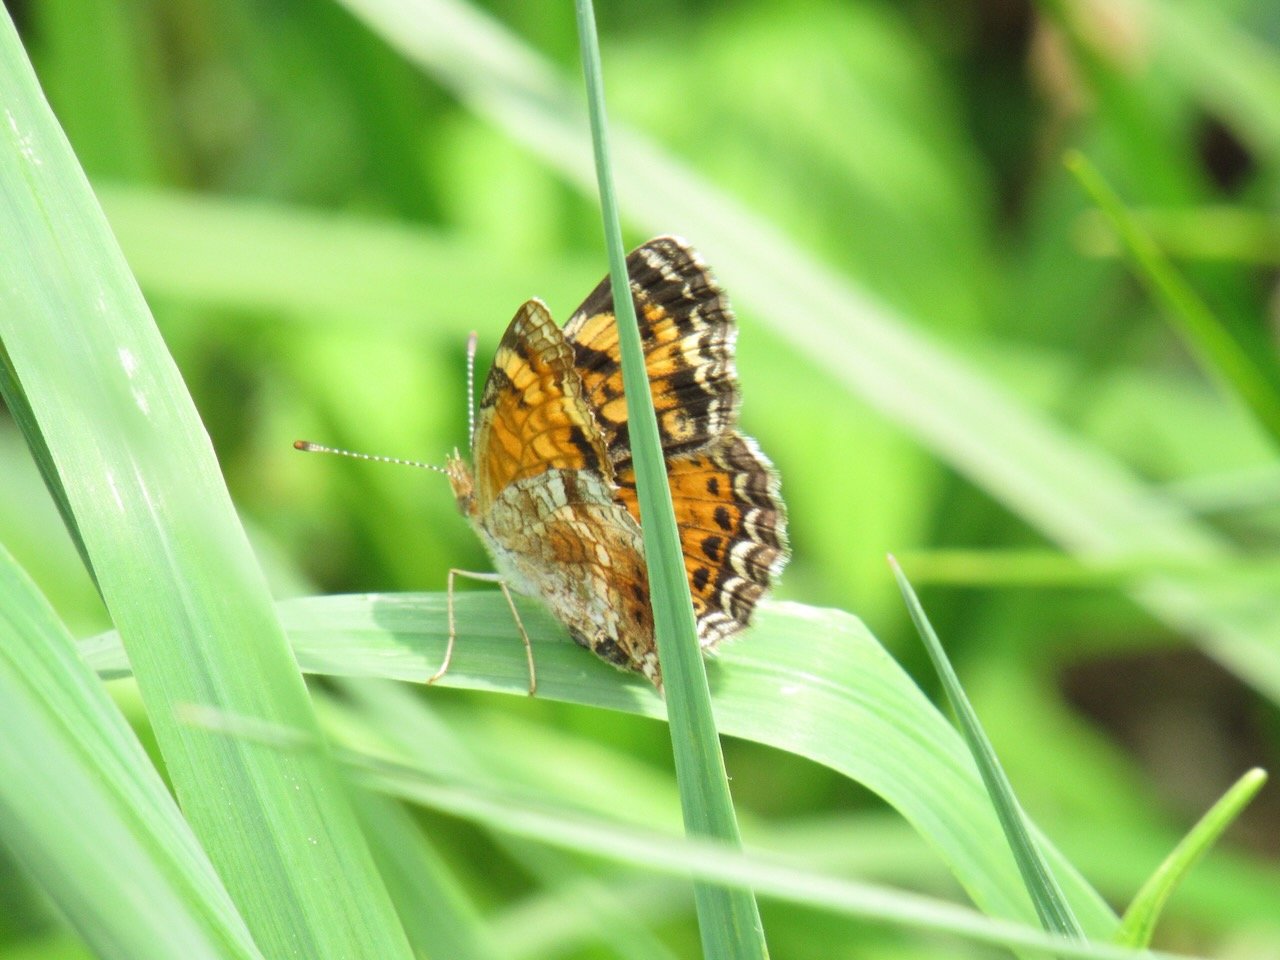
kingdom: Animalia
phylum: Arthropoda
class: Insecta
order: Lepidoptera
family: Nymphalidae
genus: Phyciodes
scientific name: Phyciodes
